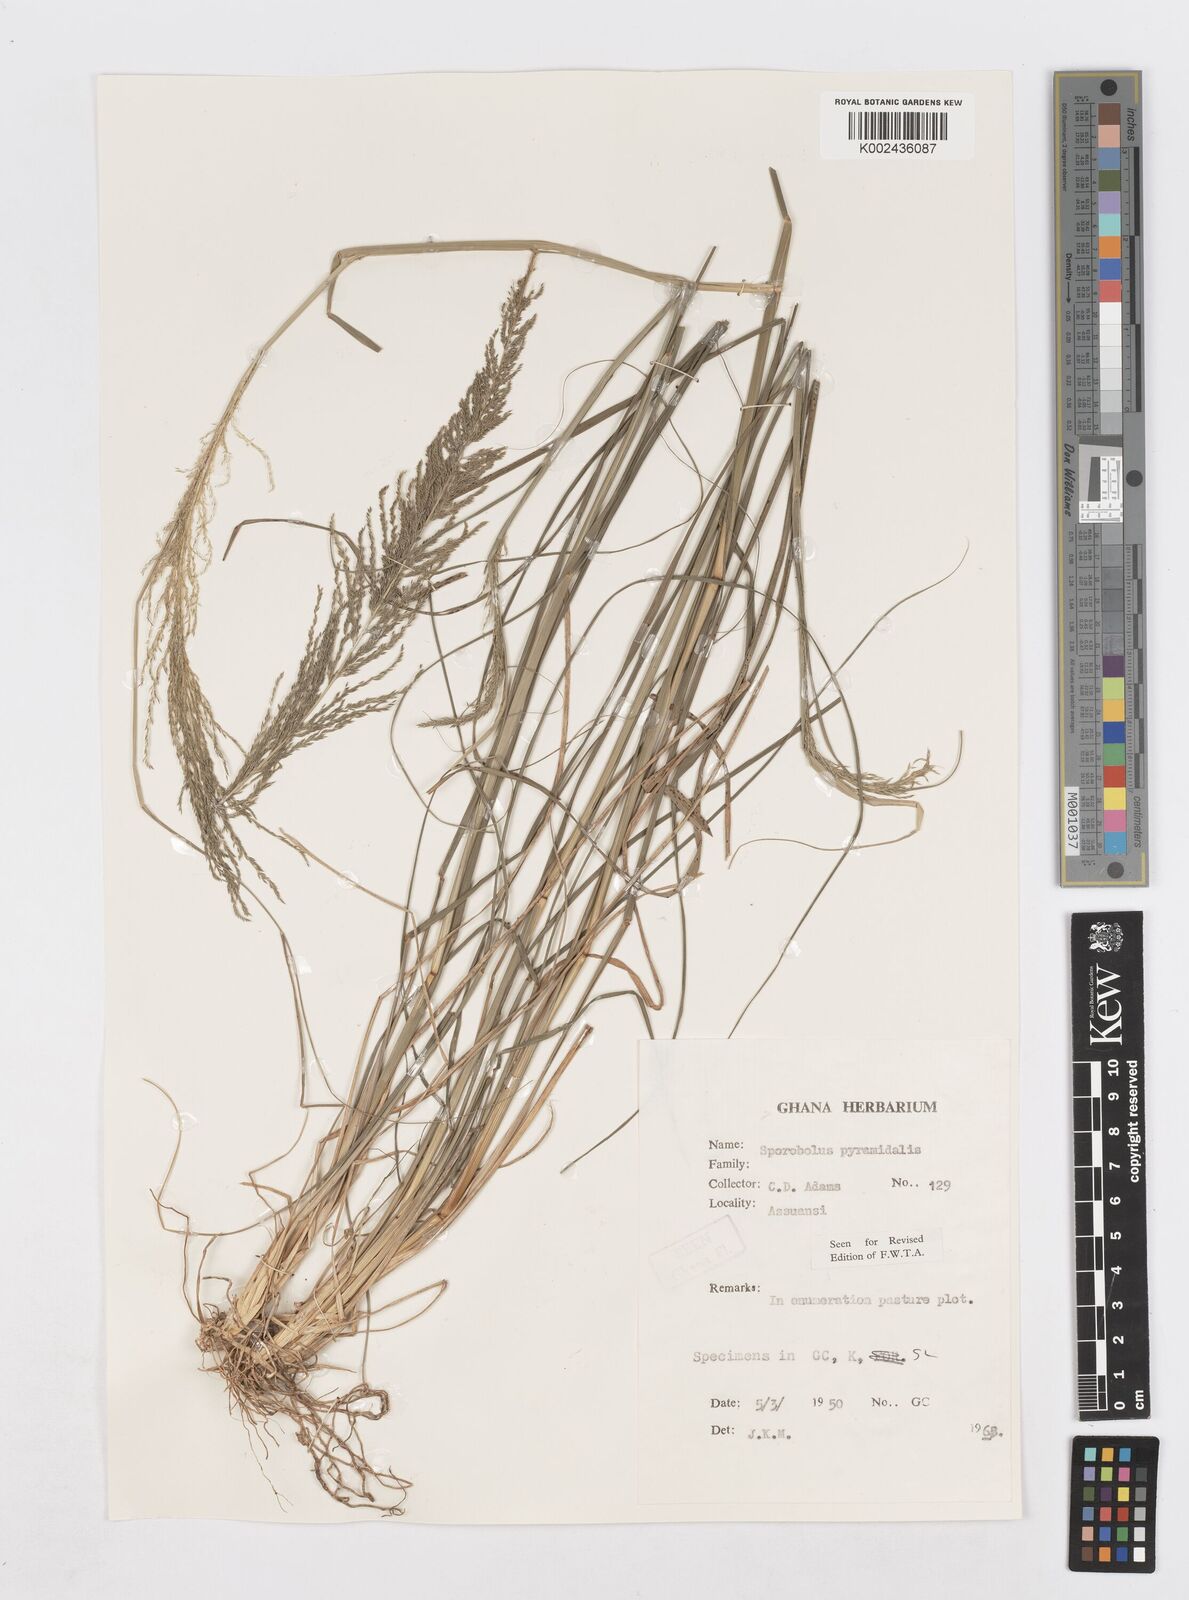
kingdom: Plantae
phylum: Tracheophyta
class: Liliopsida
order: Poales
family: Poaceae
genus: Sporobolus
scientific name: Sporobolus pyramidalis
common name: West indian dropseed
